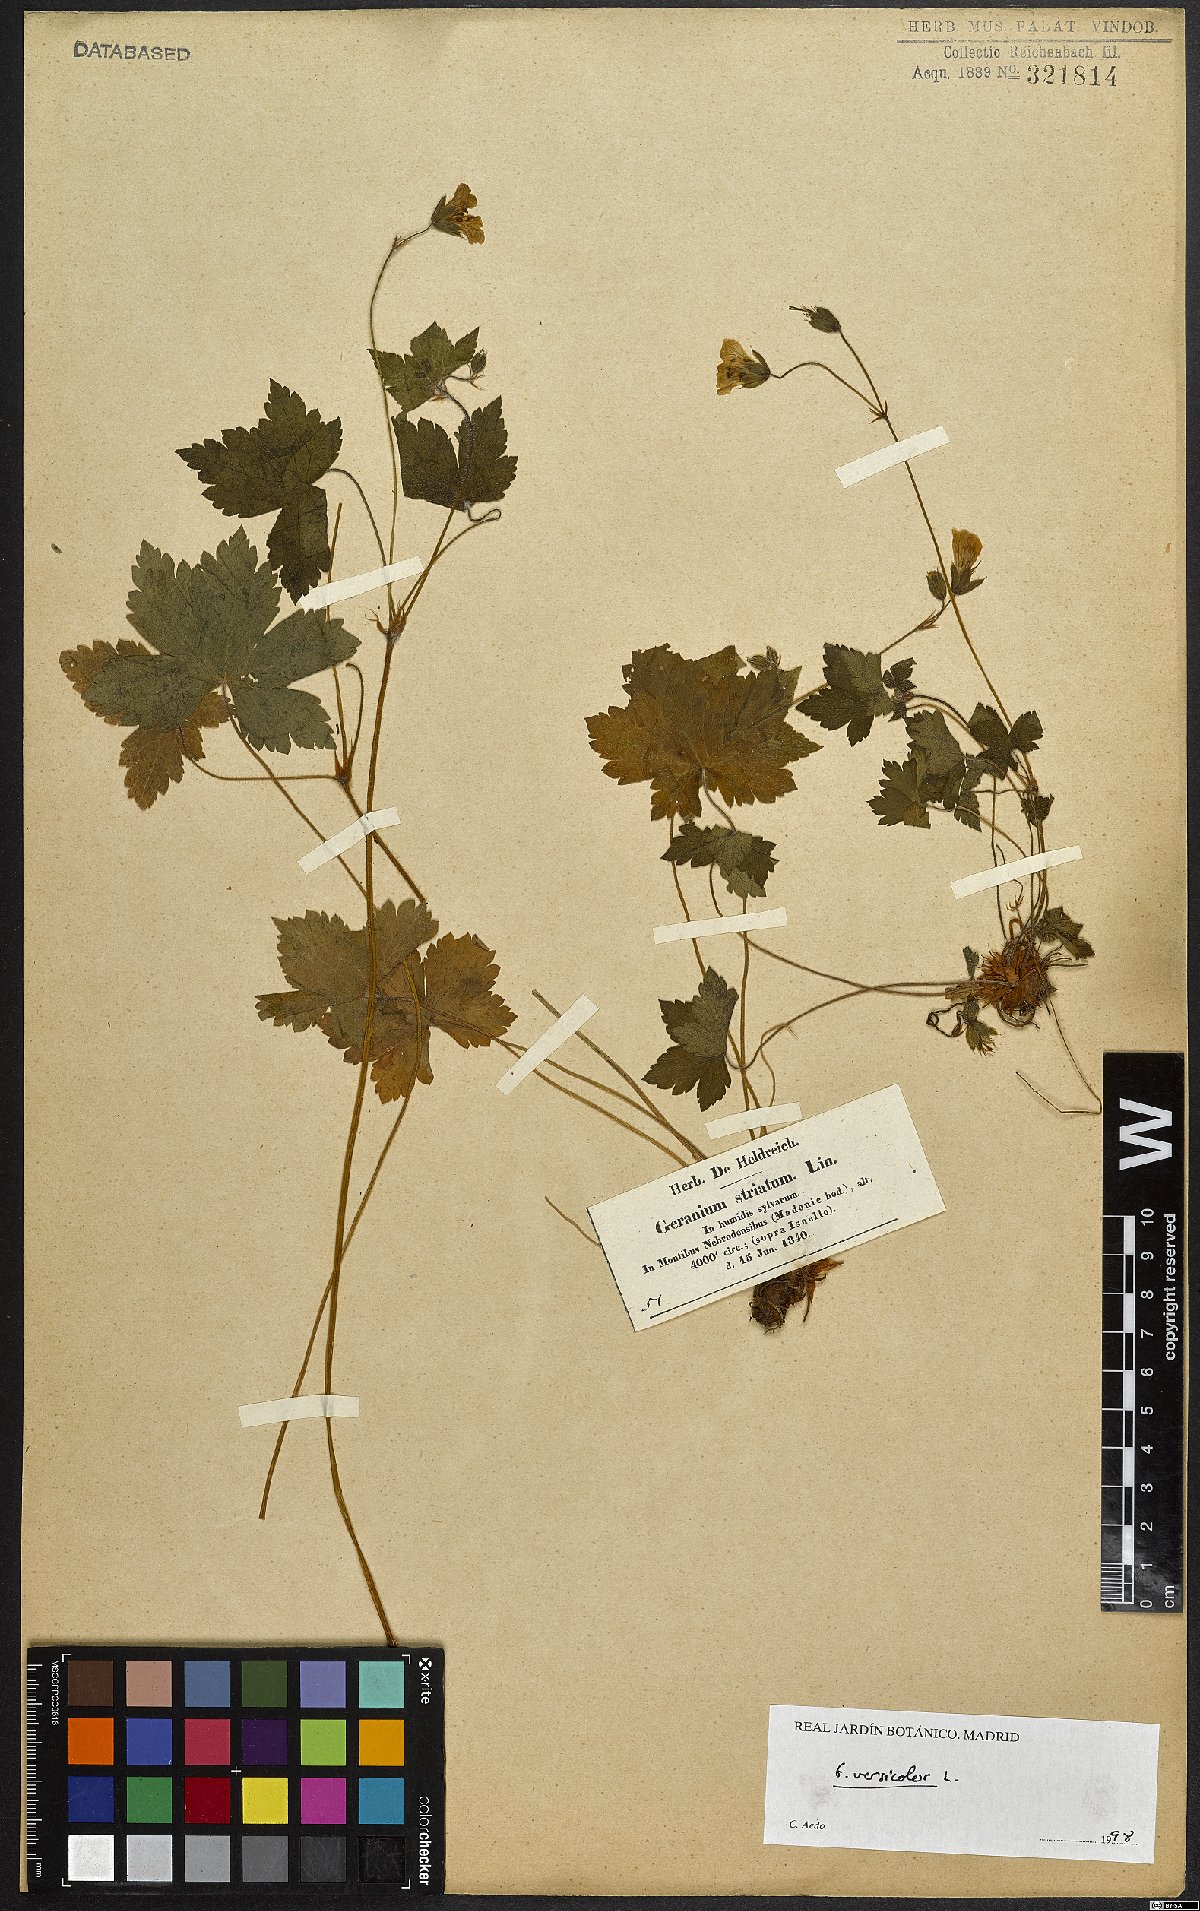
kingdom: Plantae
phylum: Tracheophyta
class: Magnoliopsida
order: Geraniales
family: Geraniaceae
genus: Geranium
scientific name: Geranium versicolor
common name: Pencilled crane's-bill
